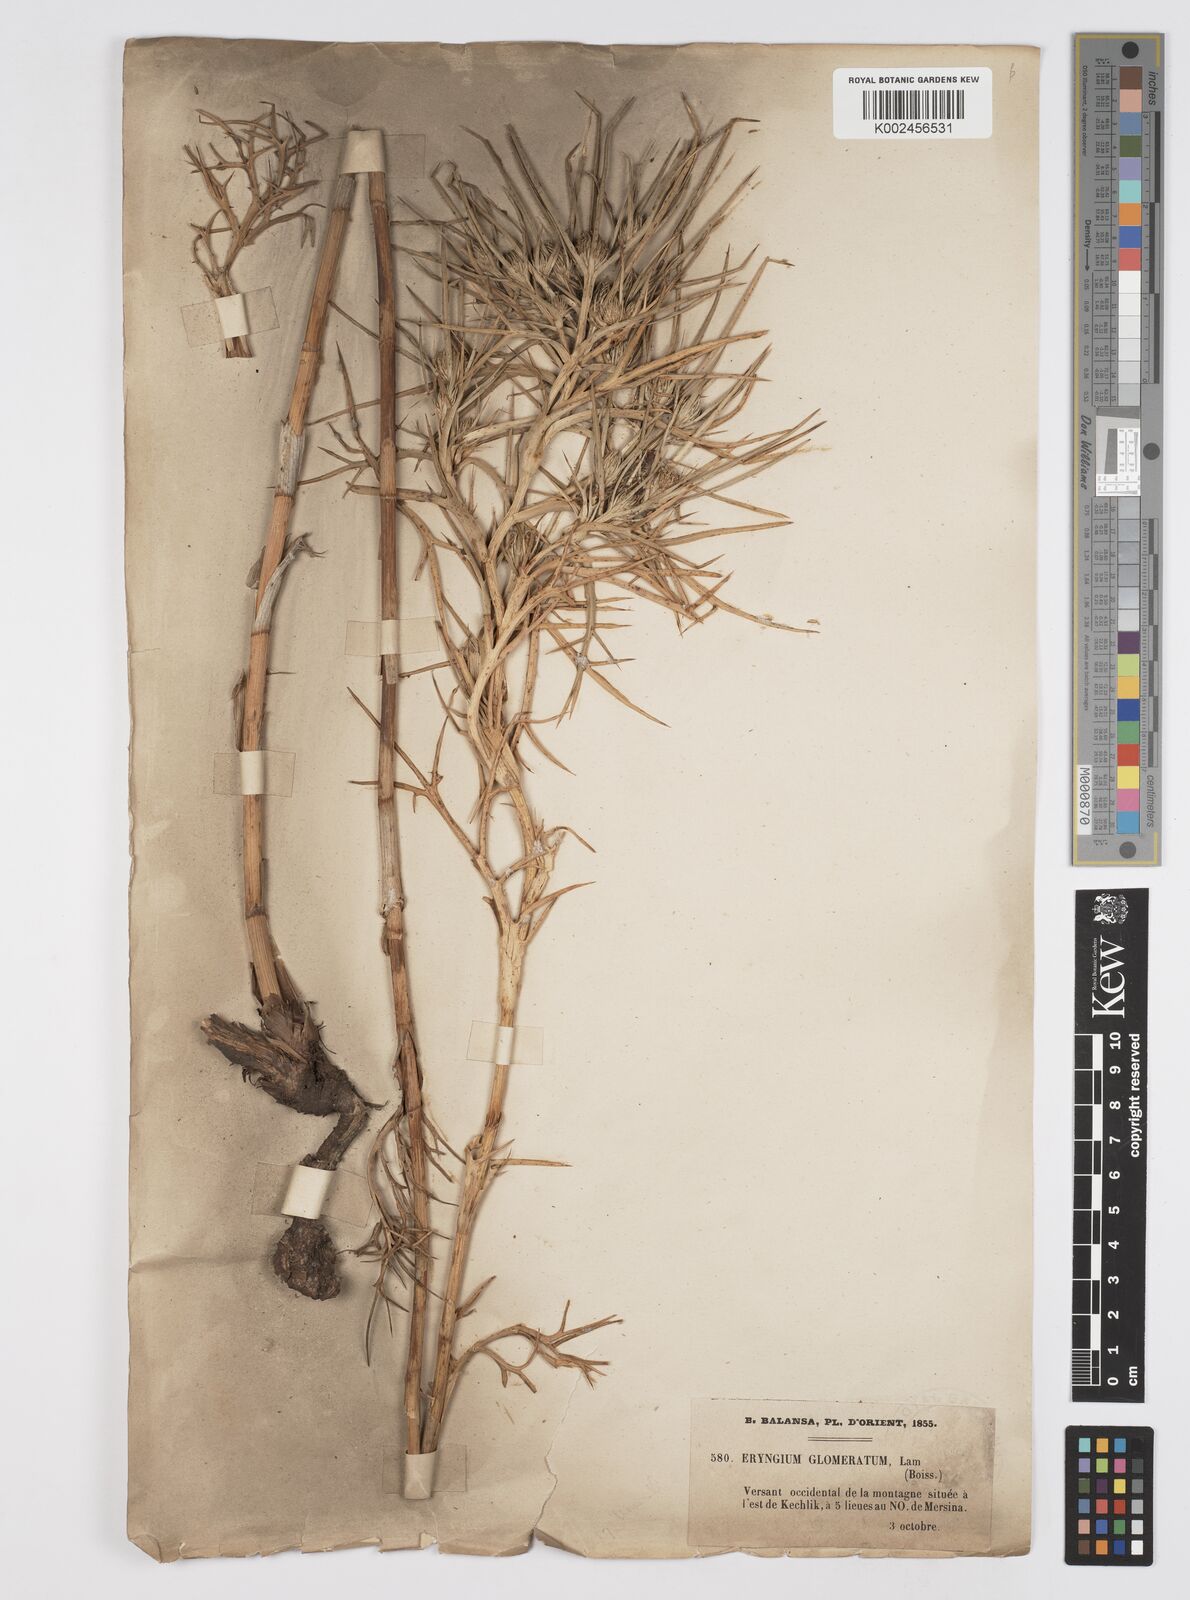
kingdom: Plantae
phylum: Tracheophyta
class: Magnoliopsida
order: Apiales
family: Apiaceae
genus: Eryngium
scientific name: Eryngium glomeratum
